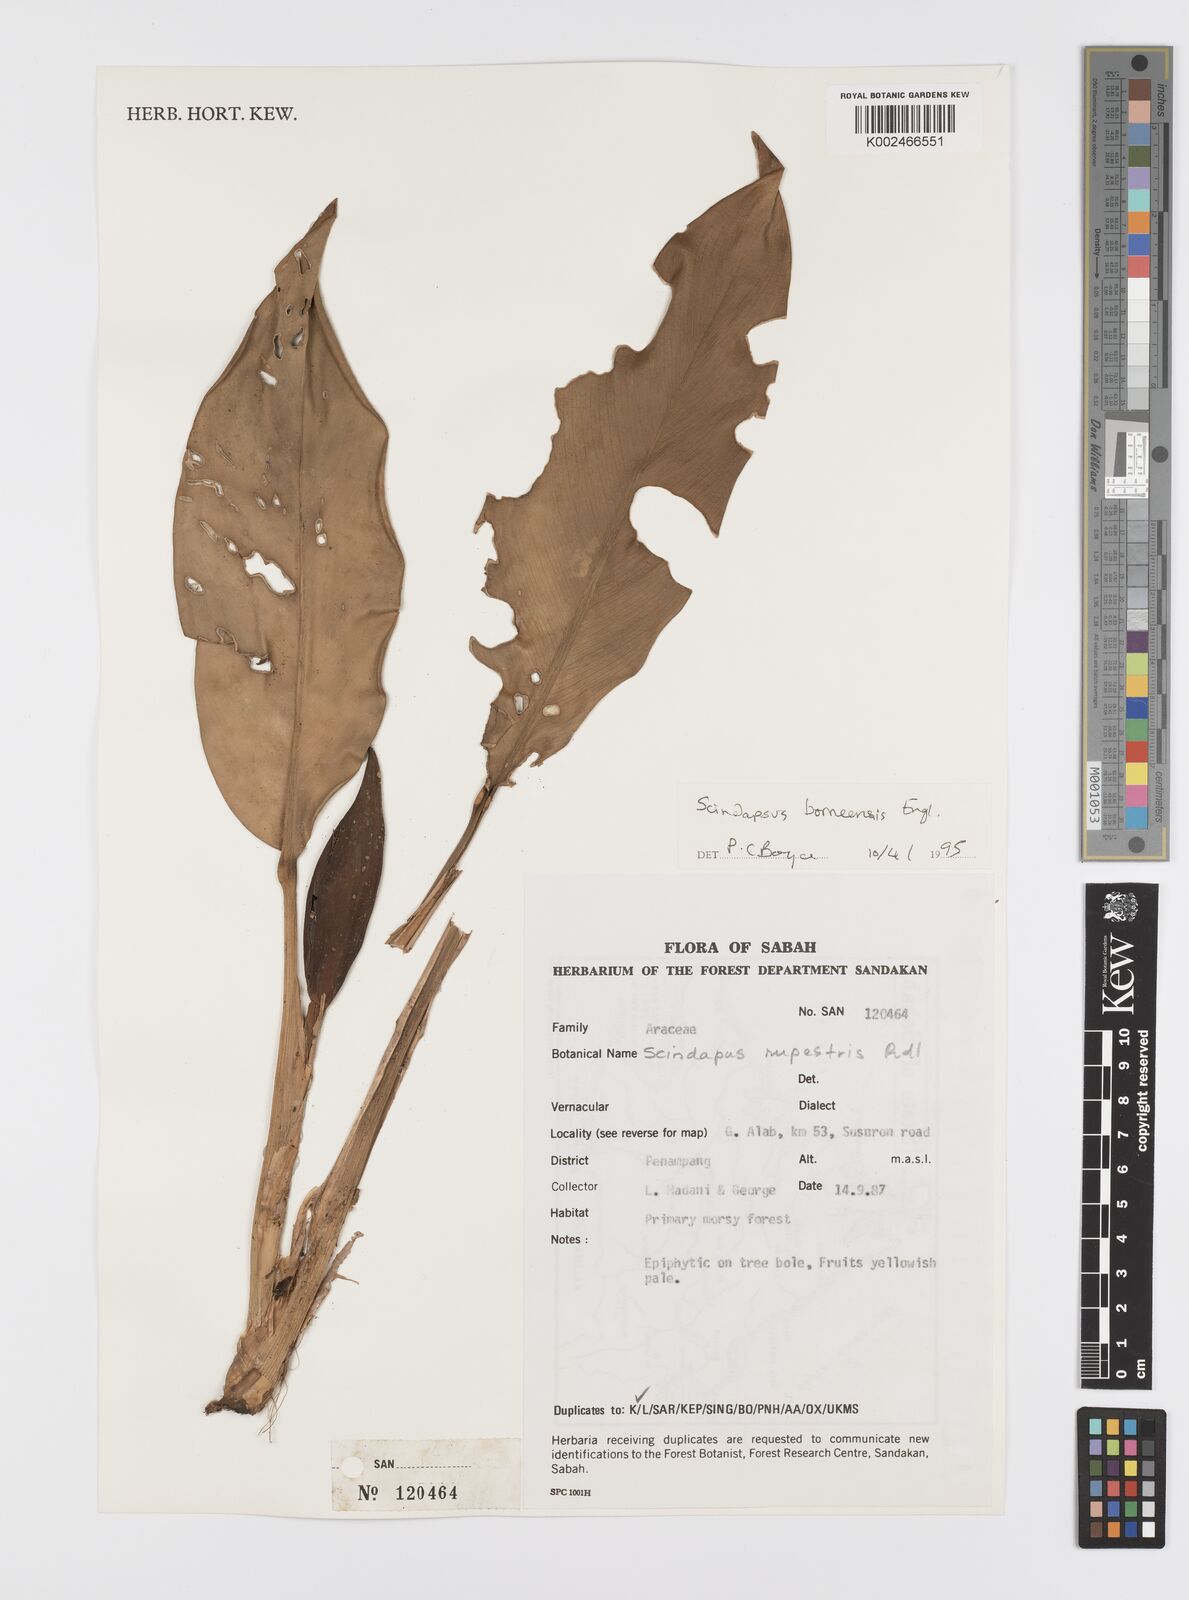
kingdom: Plantae
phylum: Tracheophyta
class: Liliopsida
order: Alismatales
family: Araceae
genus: Scindapsus
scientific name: Scindapsus coriaceus
